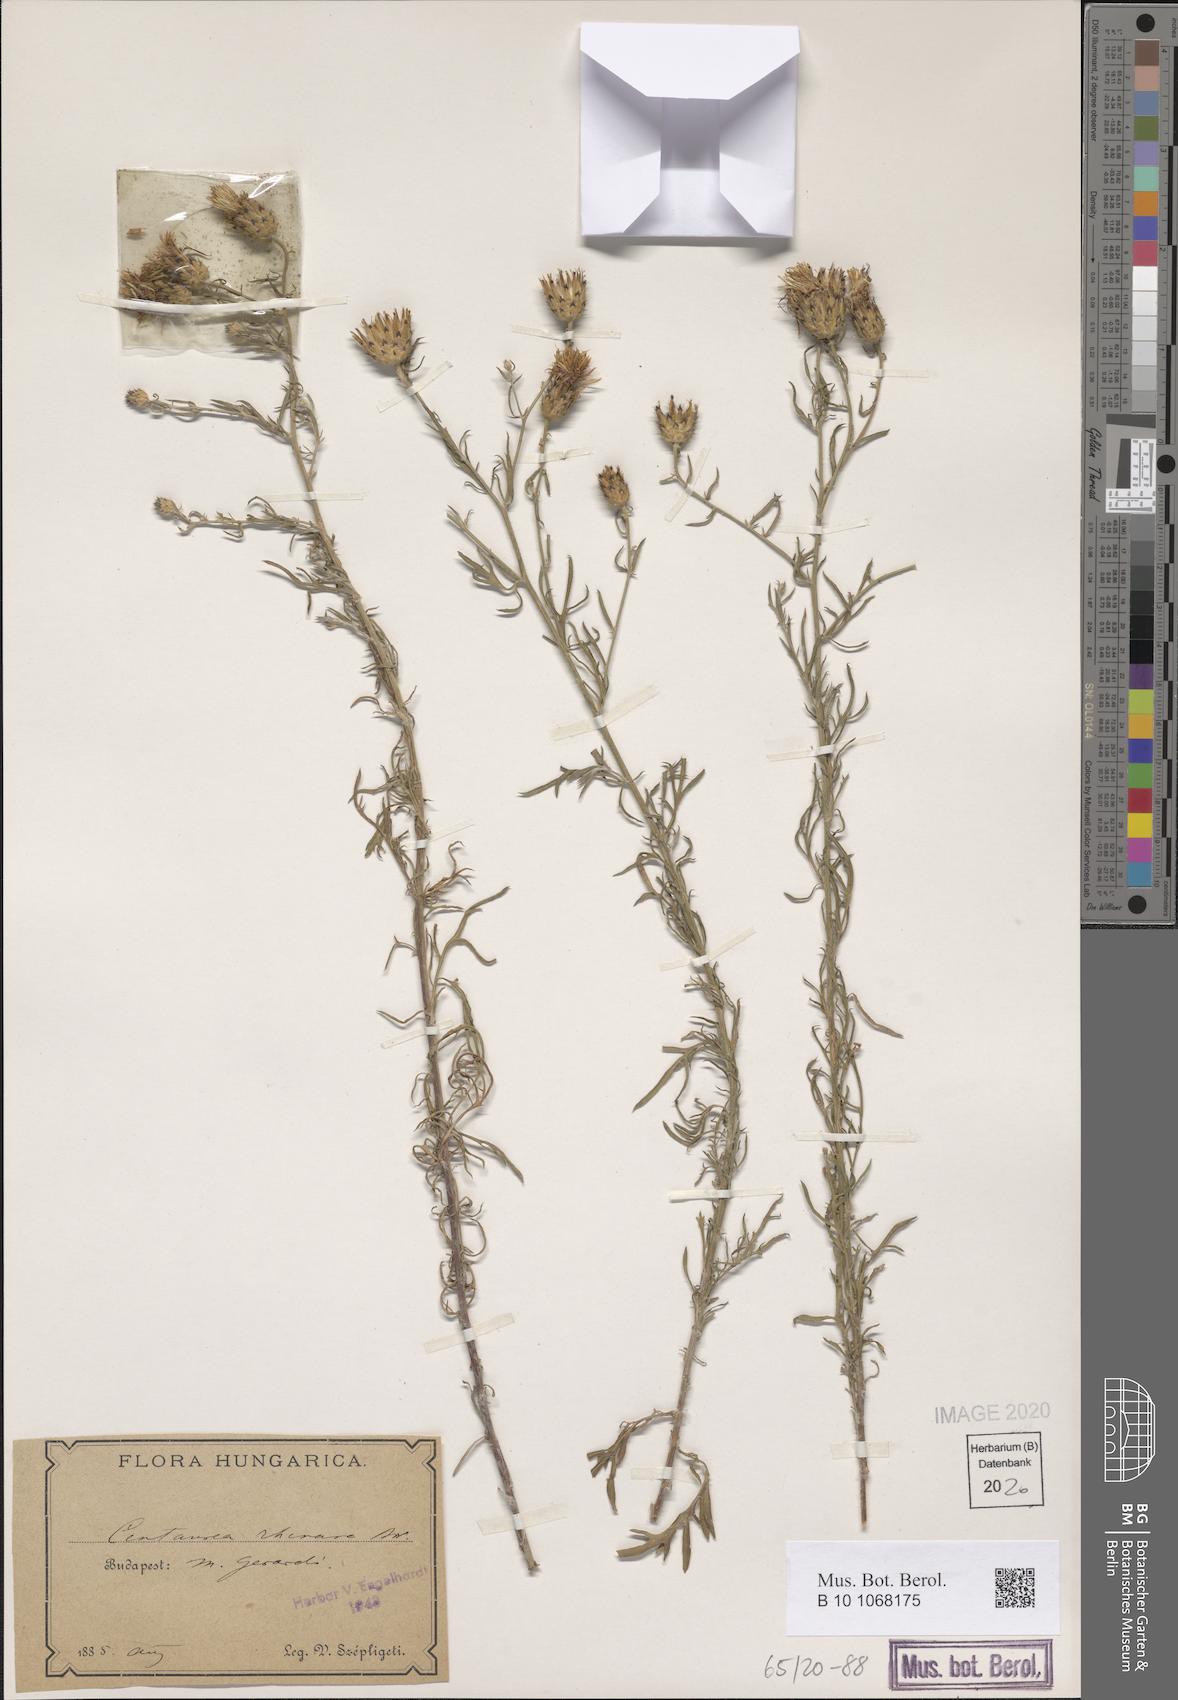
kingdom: Plantae
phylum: Tracheophyta
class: Magnoliopsida
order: Asterales
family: Asteraceae
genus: Centaurea
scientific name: Centaurea stoebe
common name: Spotted knapweed
